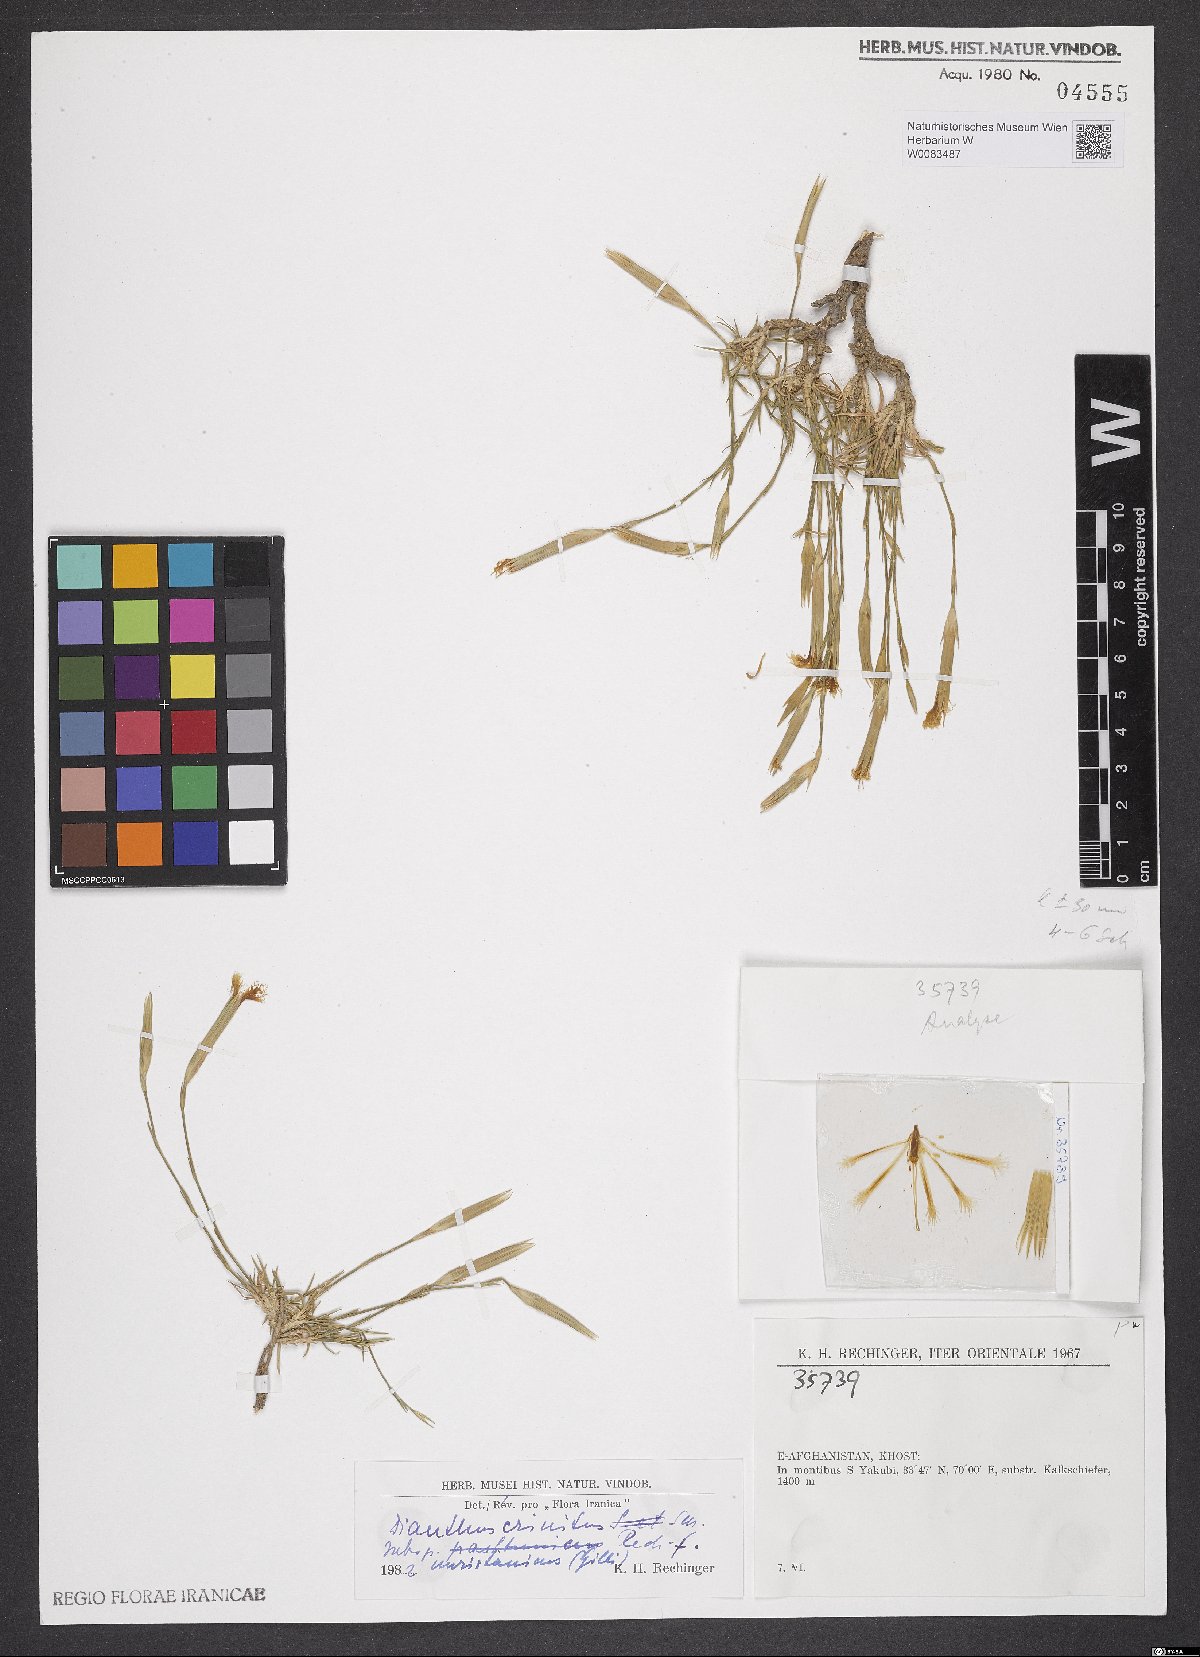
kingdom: Plantae
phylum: Tracheophyta
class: Magnoliopsida
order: Caryophyllales
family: Caryophyllaceae
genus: Dianthus
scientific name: Dianthus crinitus
